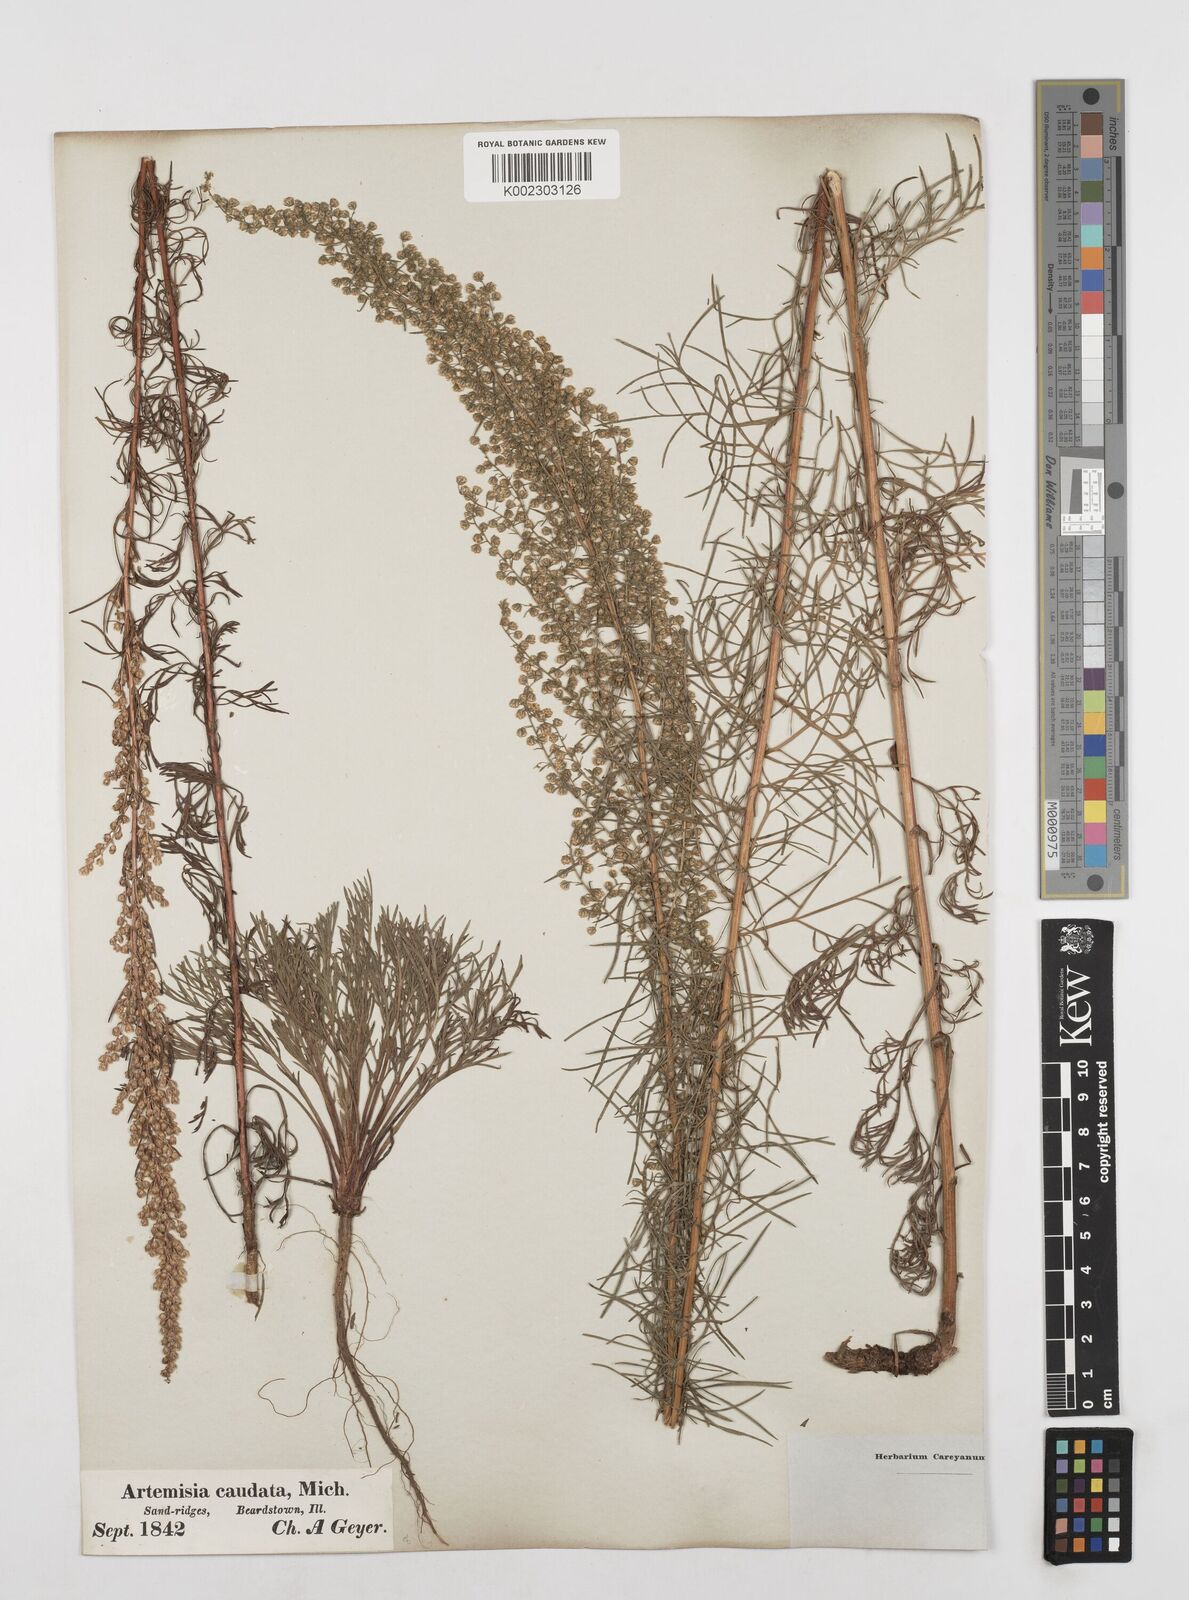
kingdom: Plantae
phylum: Tracheophyta
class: Magnoliopsida
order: Asterales
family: Asteraceae
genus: Artemisia
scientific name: Artemisia campestris
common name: Field wormwood
